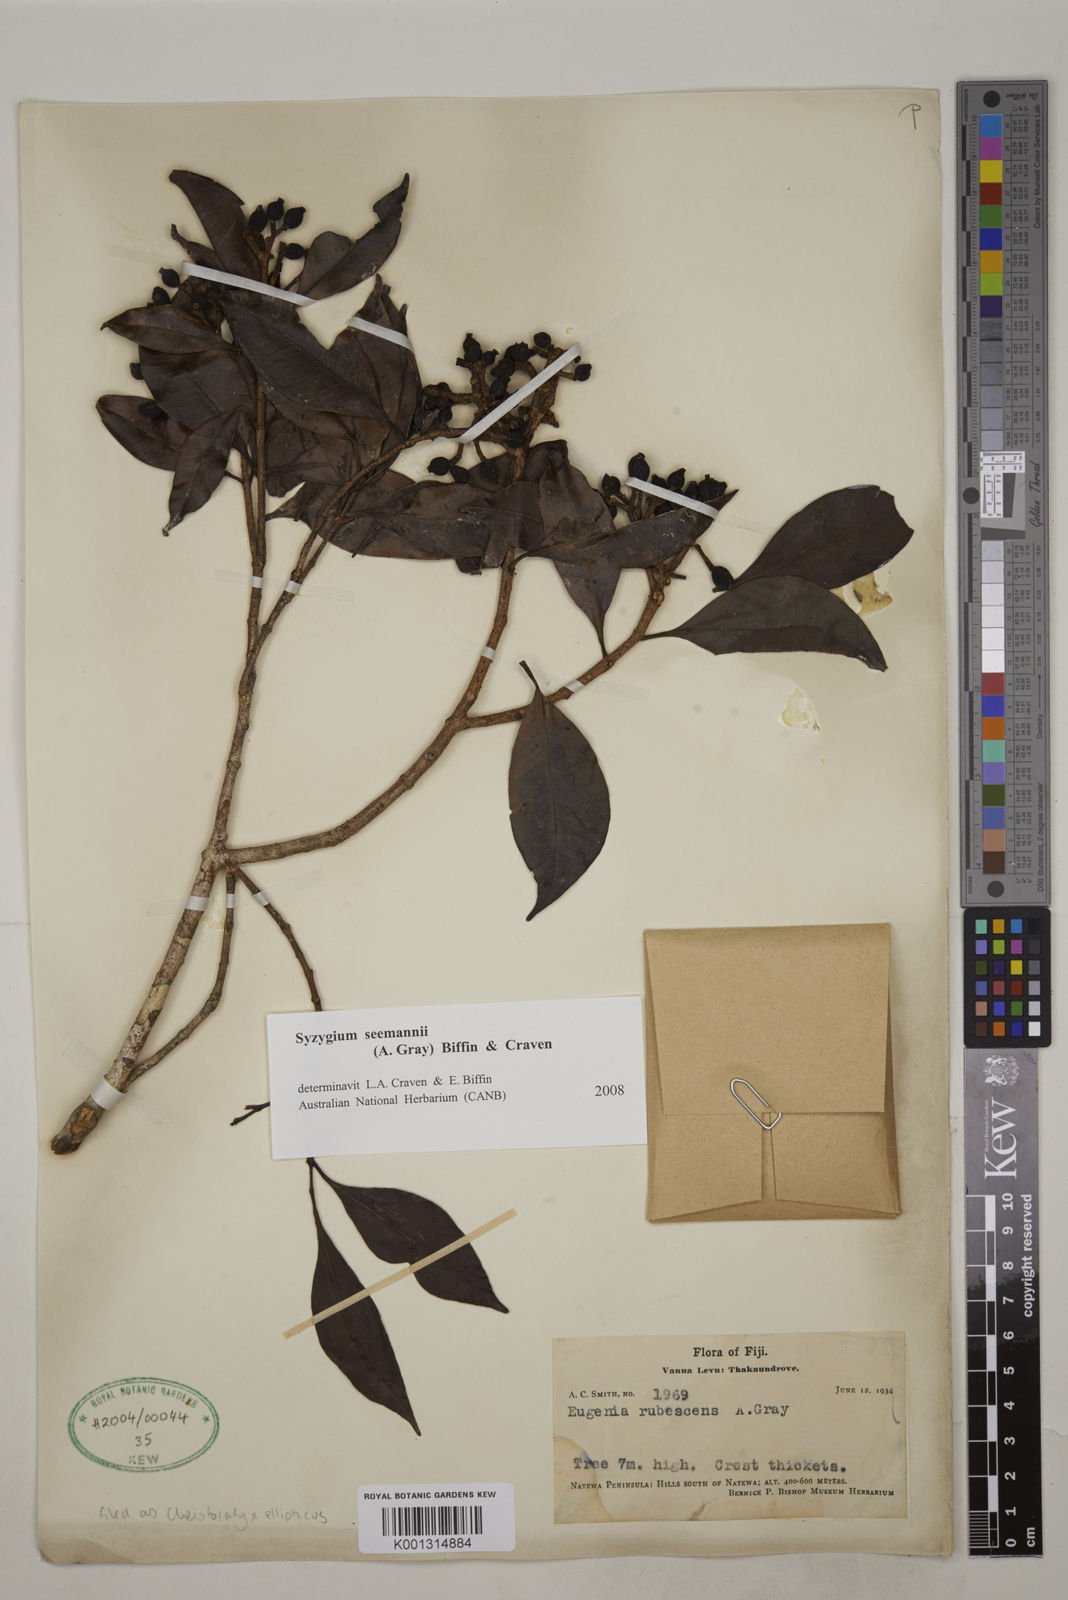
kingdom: Plantae
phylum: Tracheophyta
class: Magnoliopsida
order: Myrtales
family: Myrtaceae
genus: Syzygium
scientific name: Syzygium seemannii
